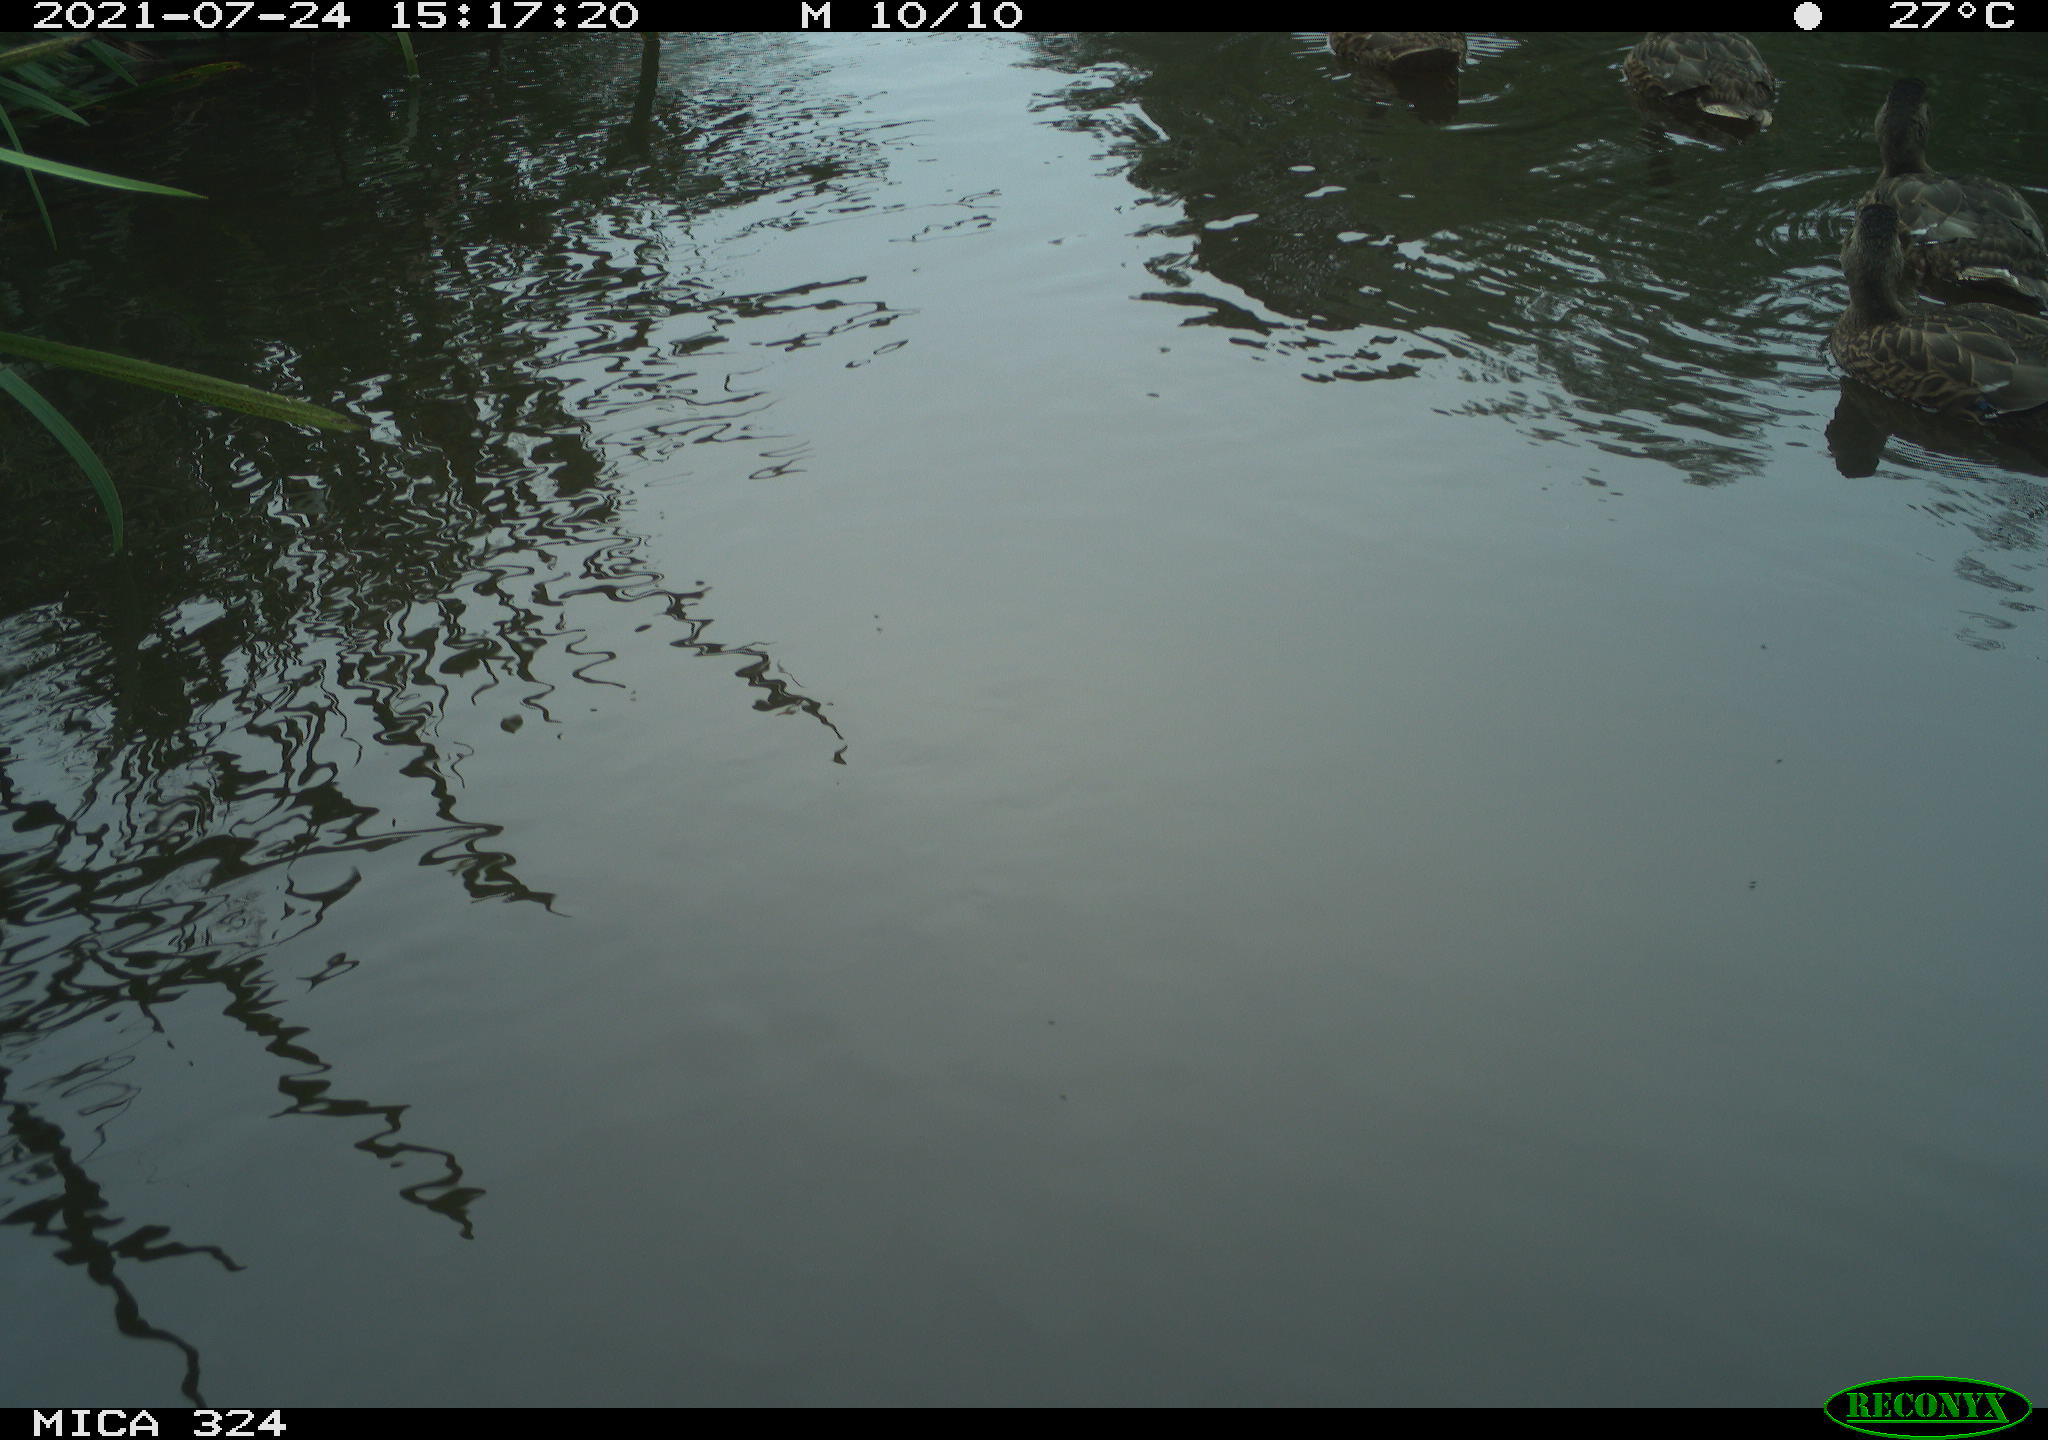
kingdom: Animalia
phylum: Chordata
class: Aves
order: Anseriformes
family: Anatidae
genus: Anas
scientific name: Anas platyrhynchos
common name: Mallard
